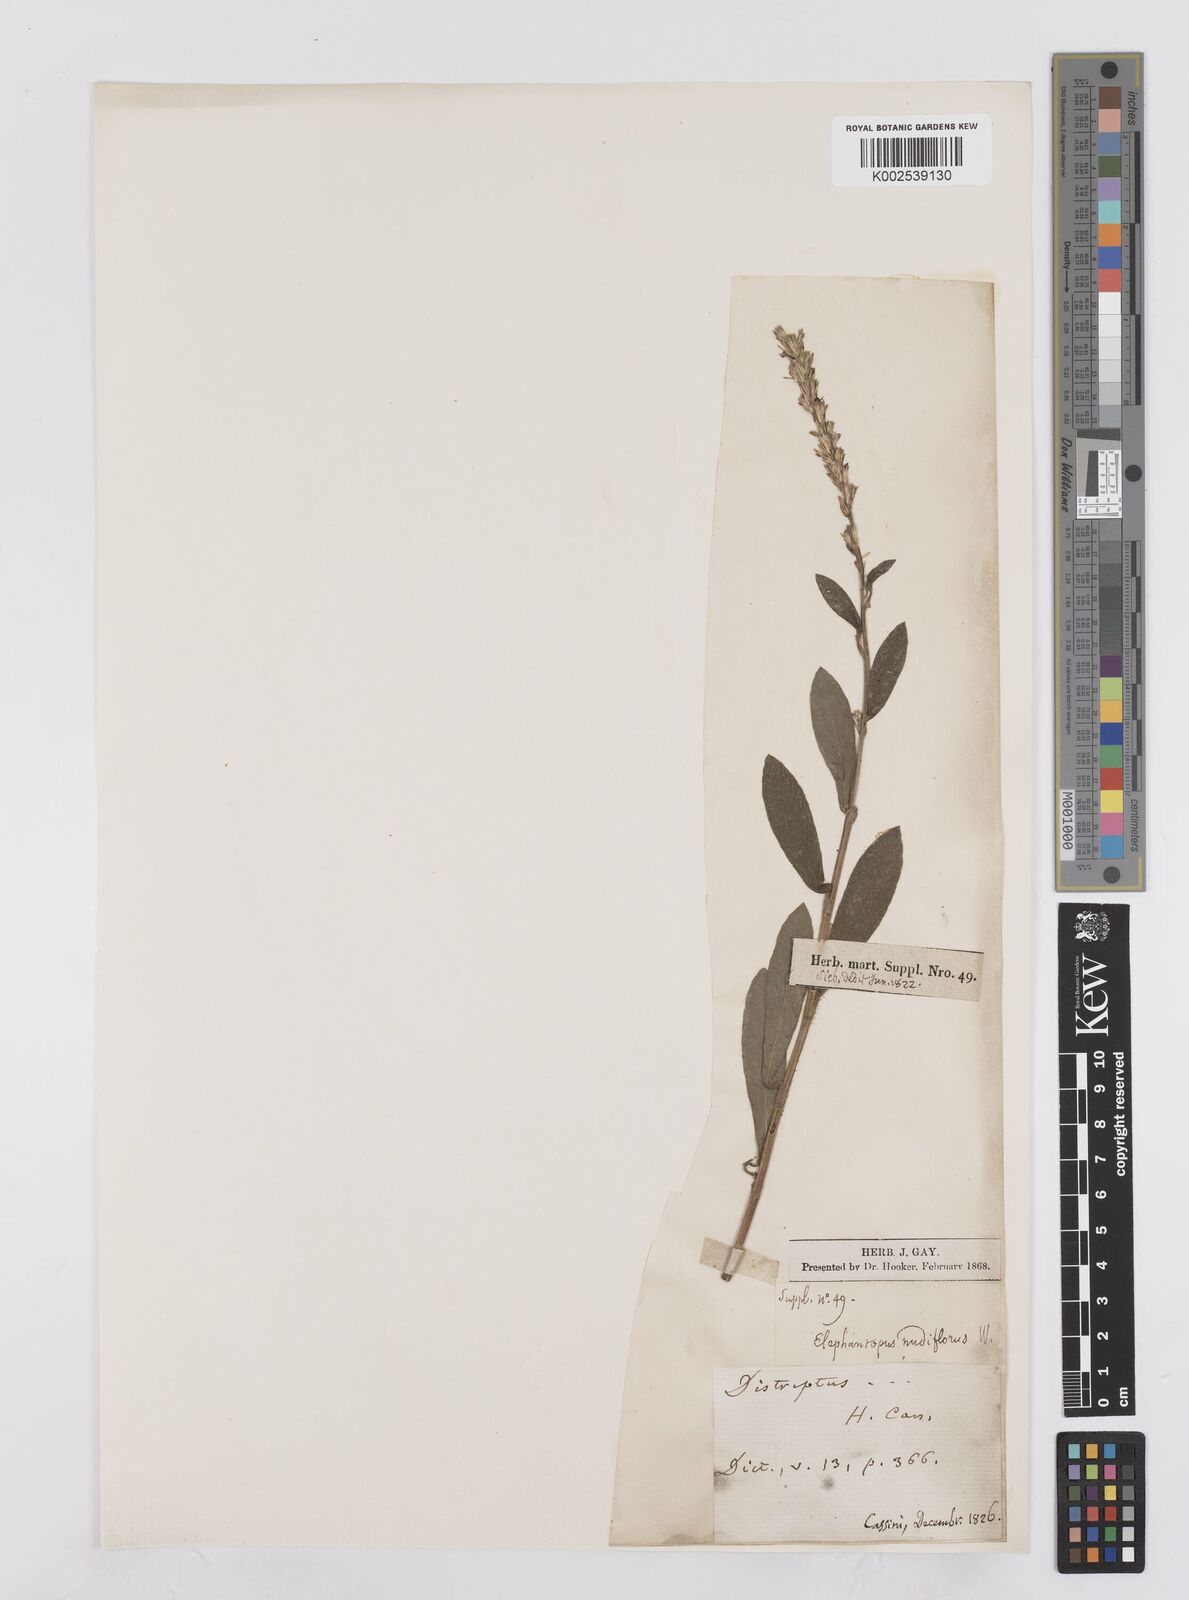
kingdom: Plantae
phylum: Tracheophyta
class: Magnoliopsida
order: Asterales
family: Asteraceae
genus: Pseudelephantopus
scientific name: Pseudelephantopus spiralis
